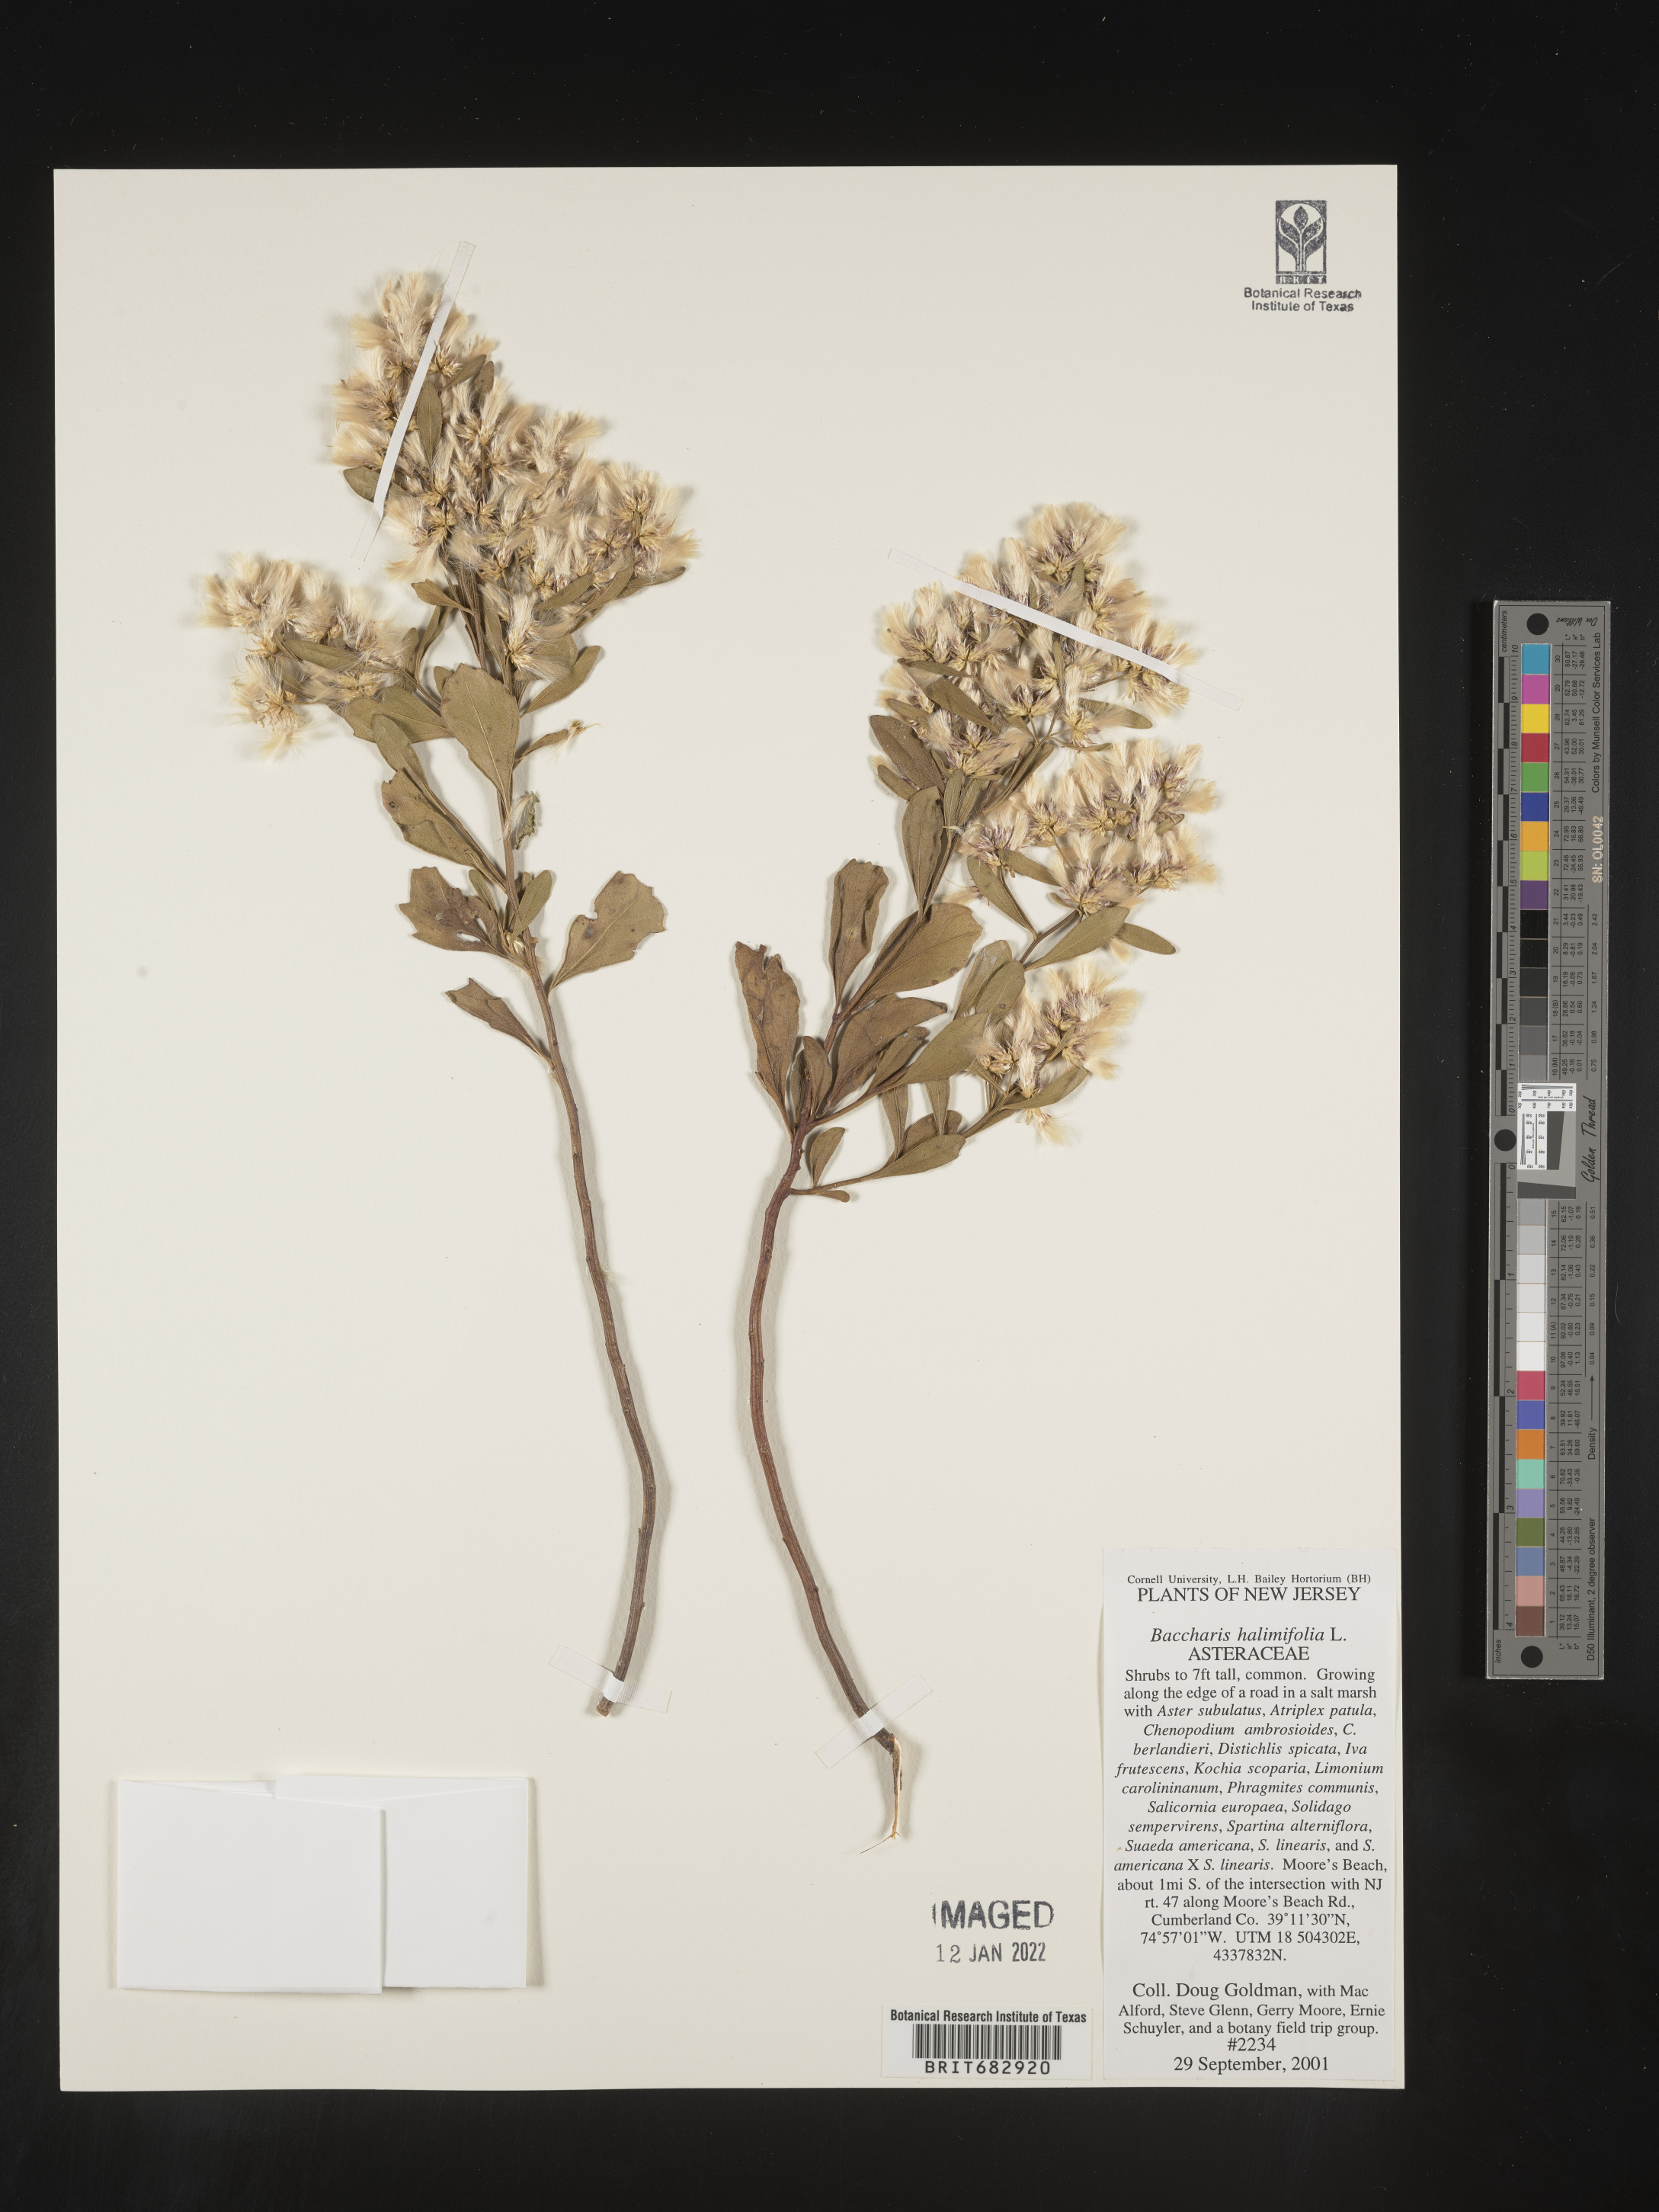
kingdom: Plantae
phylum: Tracheophyta
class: Magnoliopsida
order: Asterales
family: Asteraceae
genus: Nidorella
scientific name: Nidorella ivifolia
